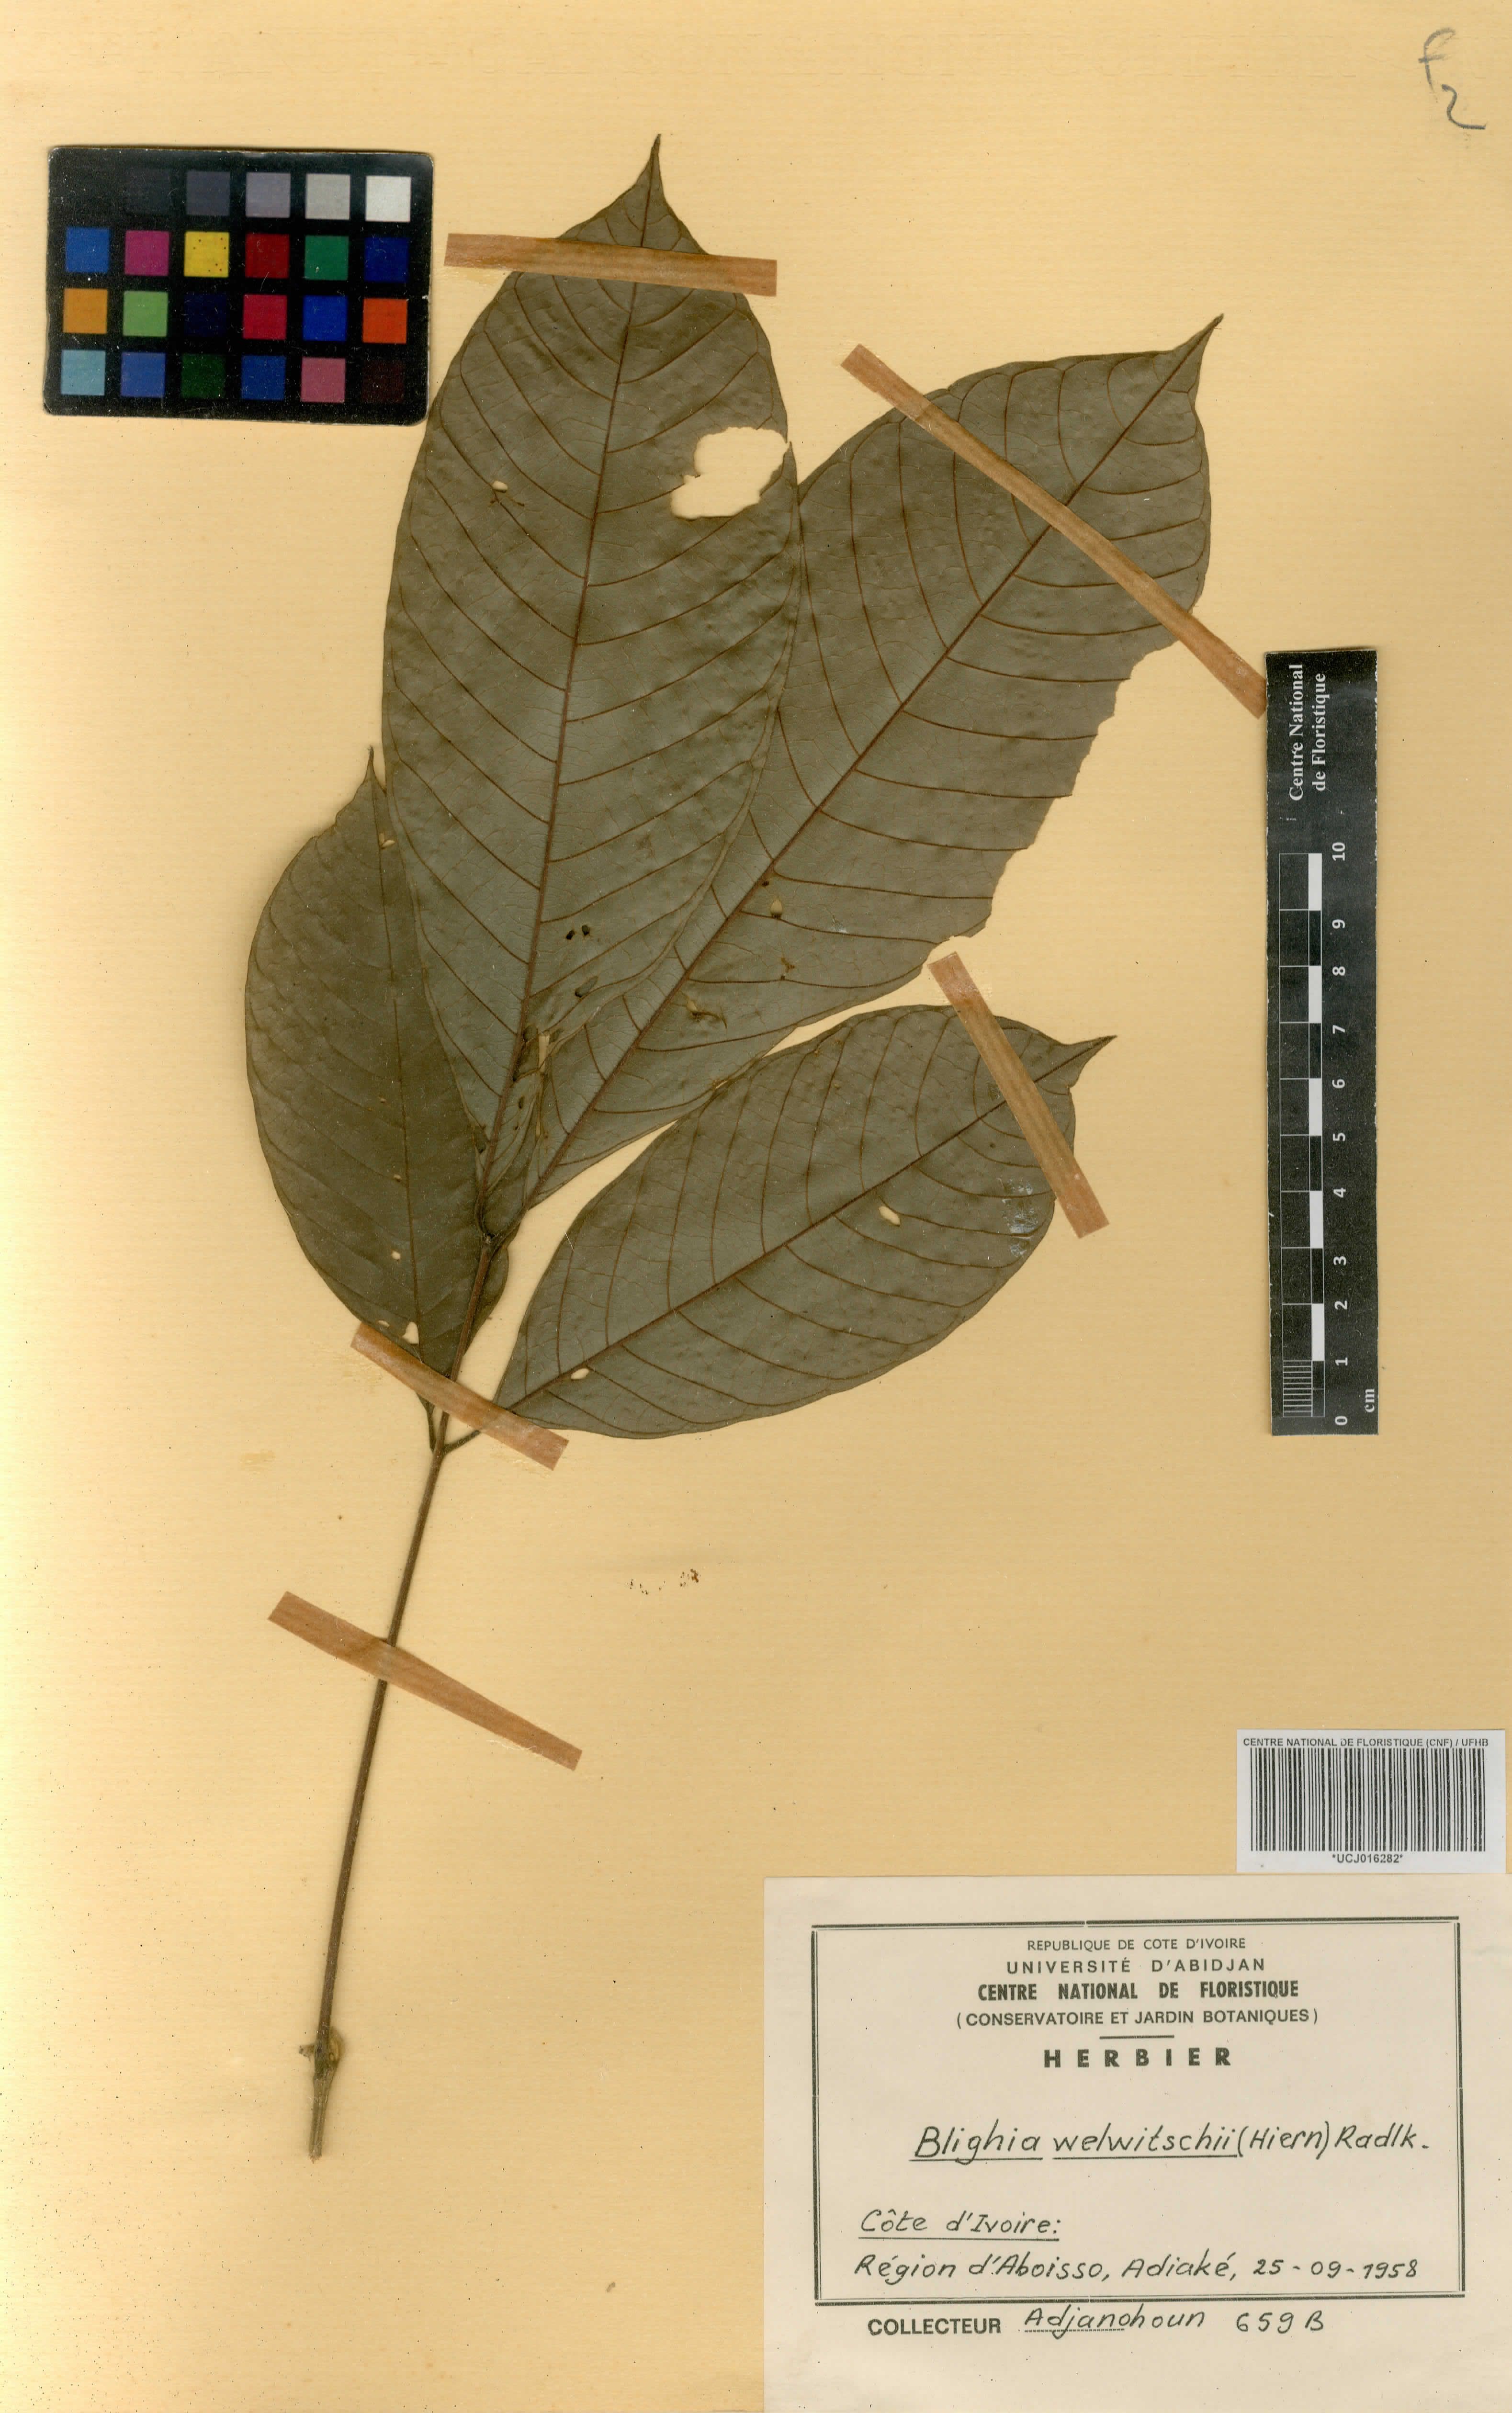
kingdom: Plantae
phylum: Tracheophyta
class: Magnoliopsida
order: Sapindales
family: Sapindaceae
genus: Blighia
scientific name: Blighia welwitschii
